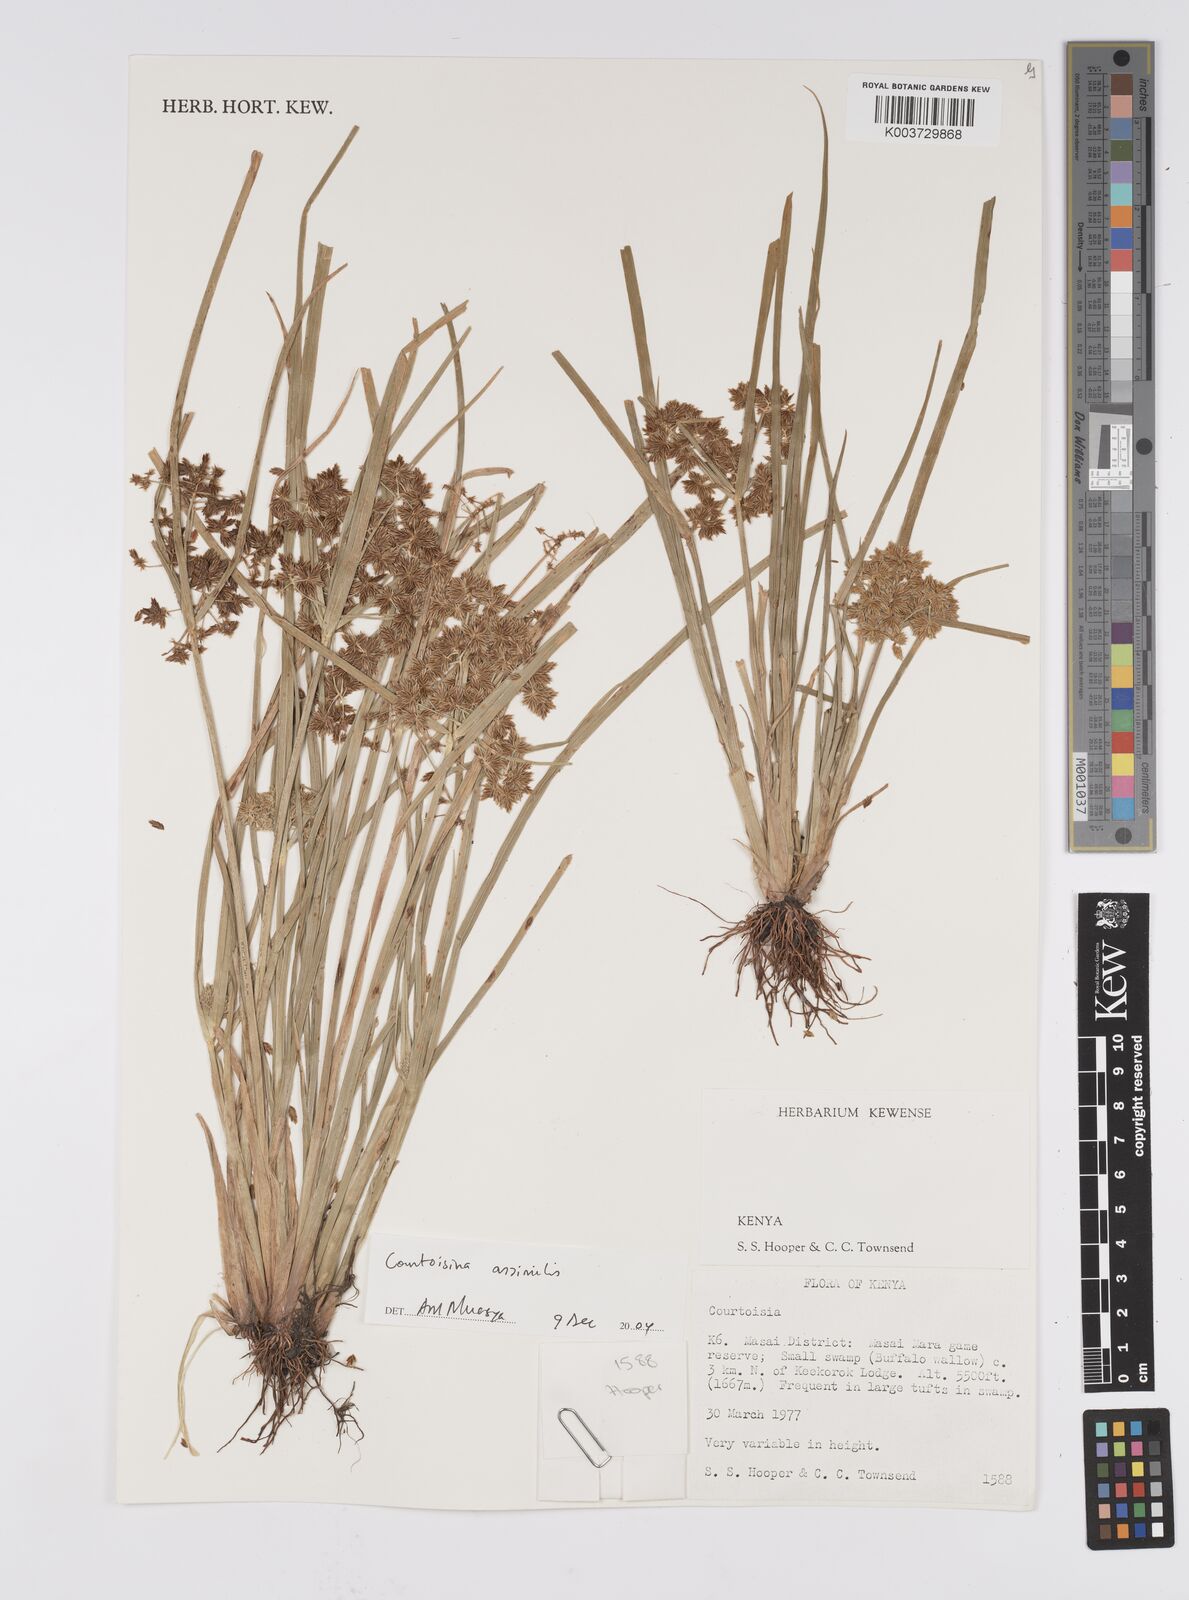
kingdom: Plantae
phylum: Tracheophyta
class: Liliopsida
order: Poales
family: Cyperaceae
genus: Cyperus
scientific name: Cyperus assimilis
